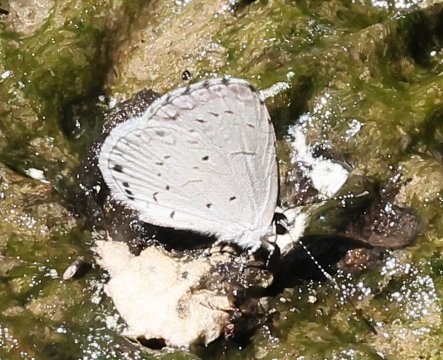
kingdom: Animalia
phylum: Arthropoda
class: Insecta
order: Lepidoptera
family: Lycaenidae
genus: Cyaniris
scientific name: Cyaniris neglecta
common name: Summer Azure
